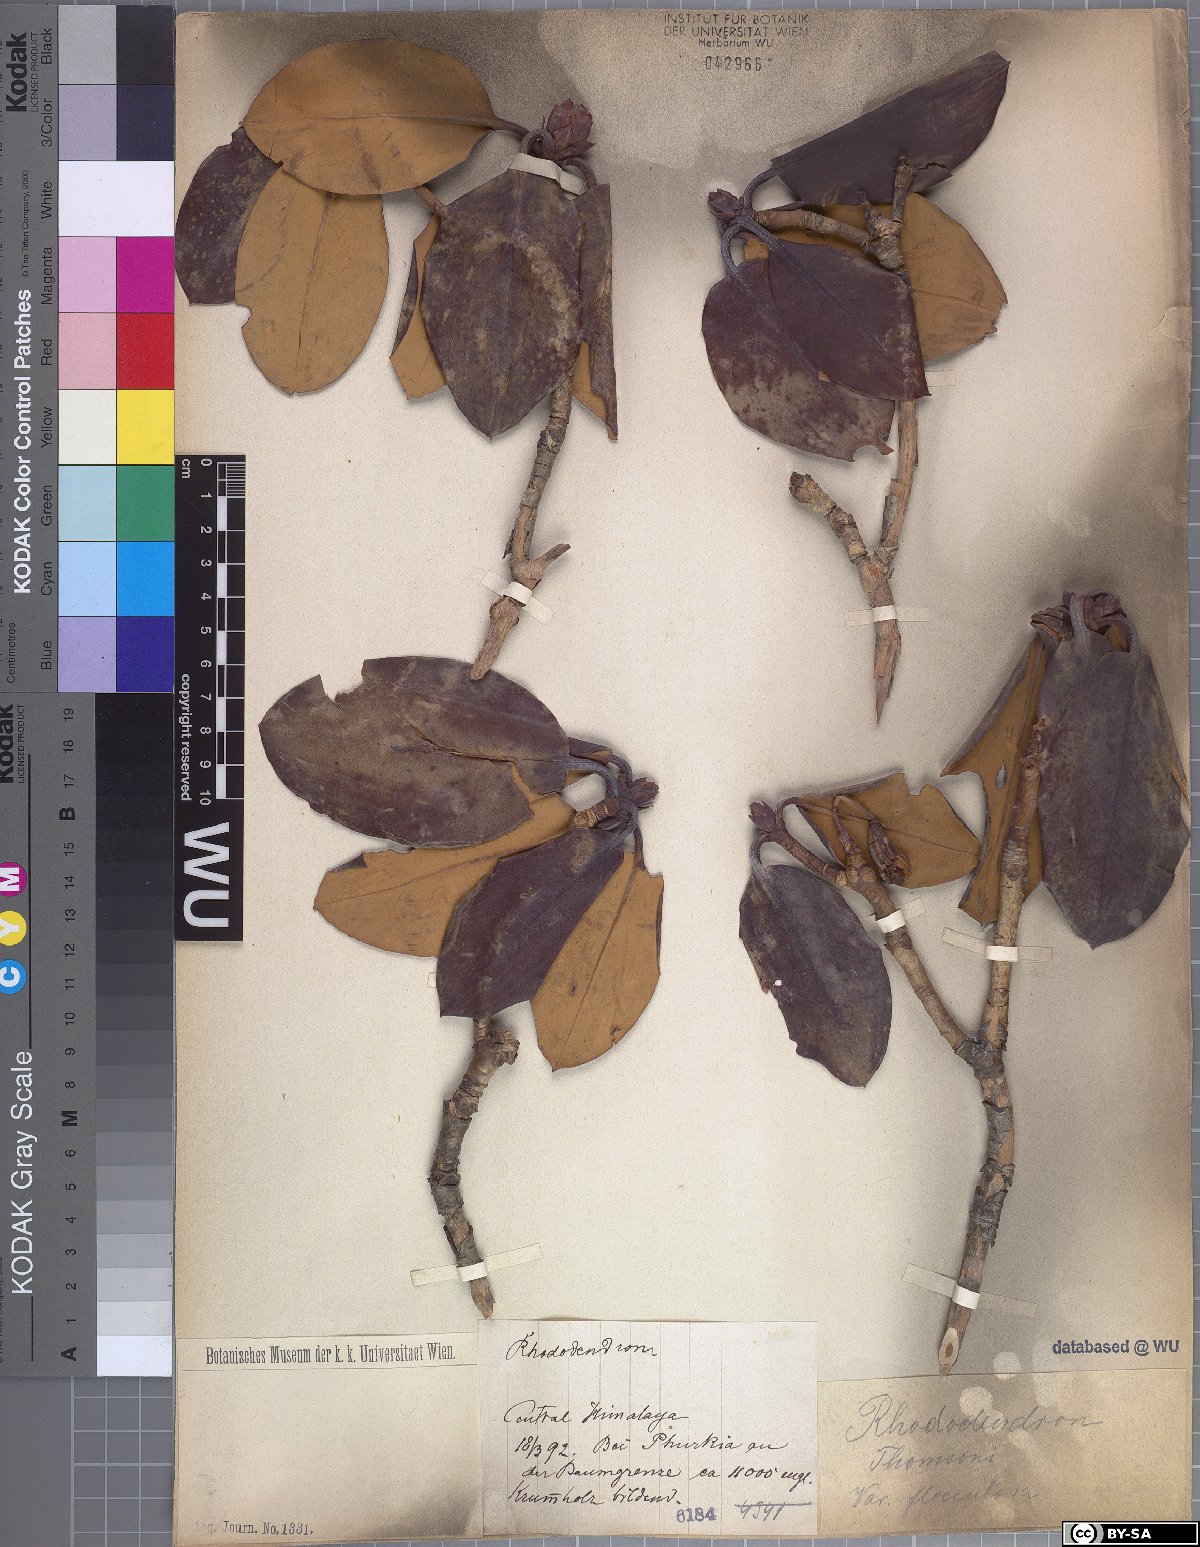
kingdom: Plantae
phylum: Tracheophyta
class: Magnoliopsida
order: Ericales
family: Ericaceae
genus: Rhododendron
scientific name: Rhododendron thomsonii
